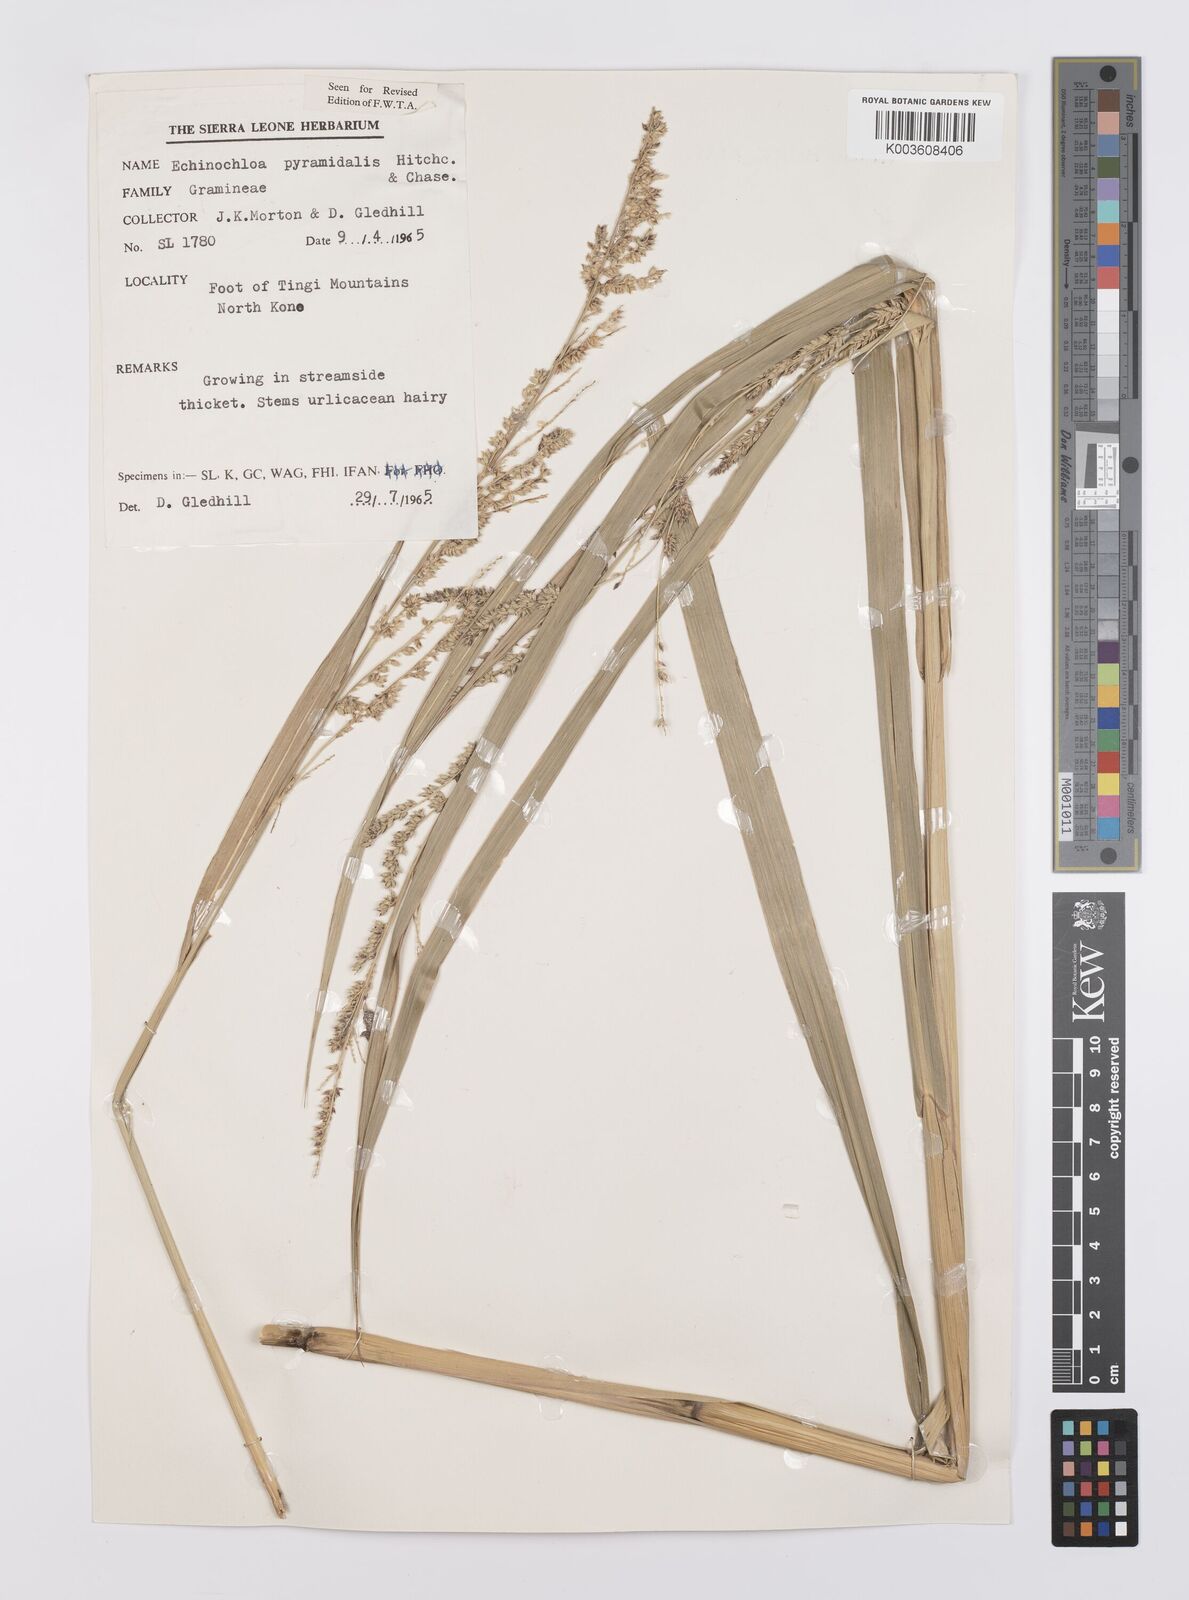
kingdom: Plantae
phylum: Tracheophyta
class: Liliopsida
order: Poales
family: Poaceae
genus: Echinochloa
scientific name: Echinochloa pyramidalis
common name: Antelope grass
